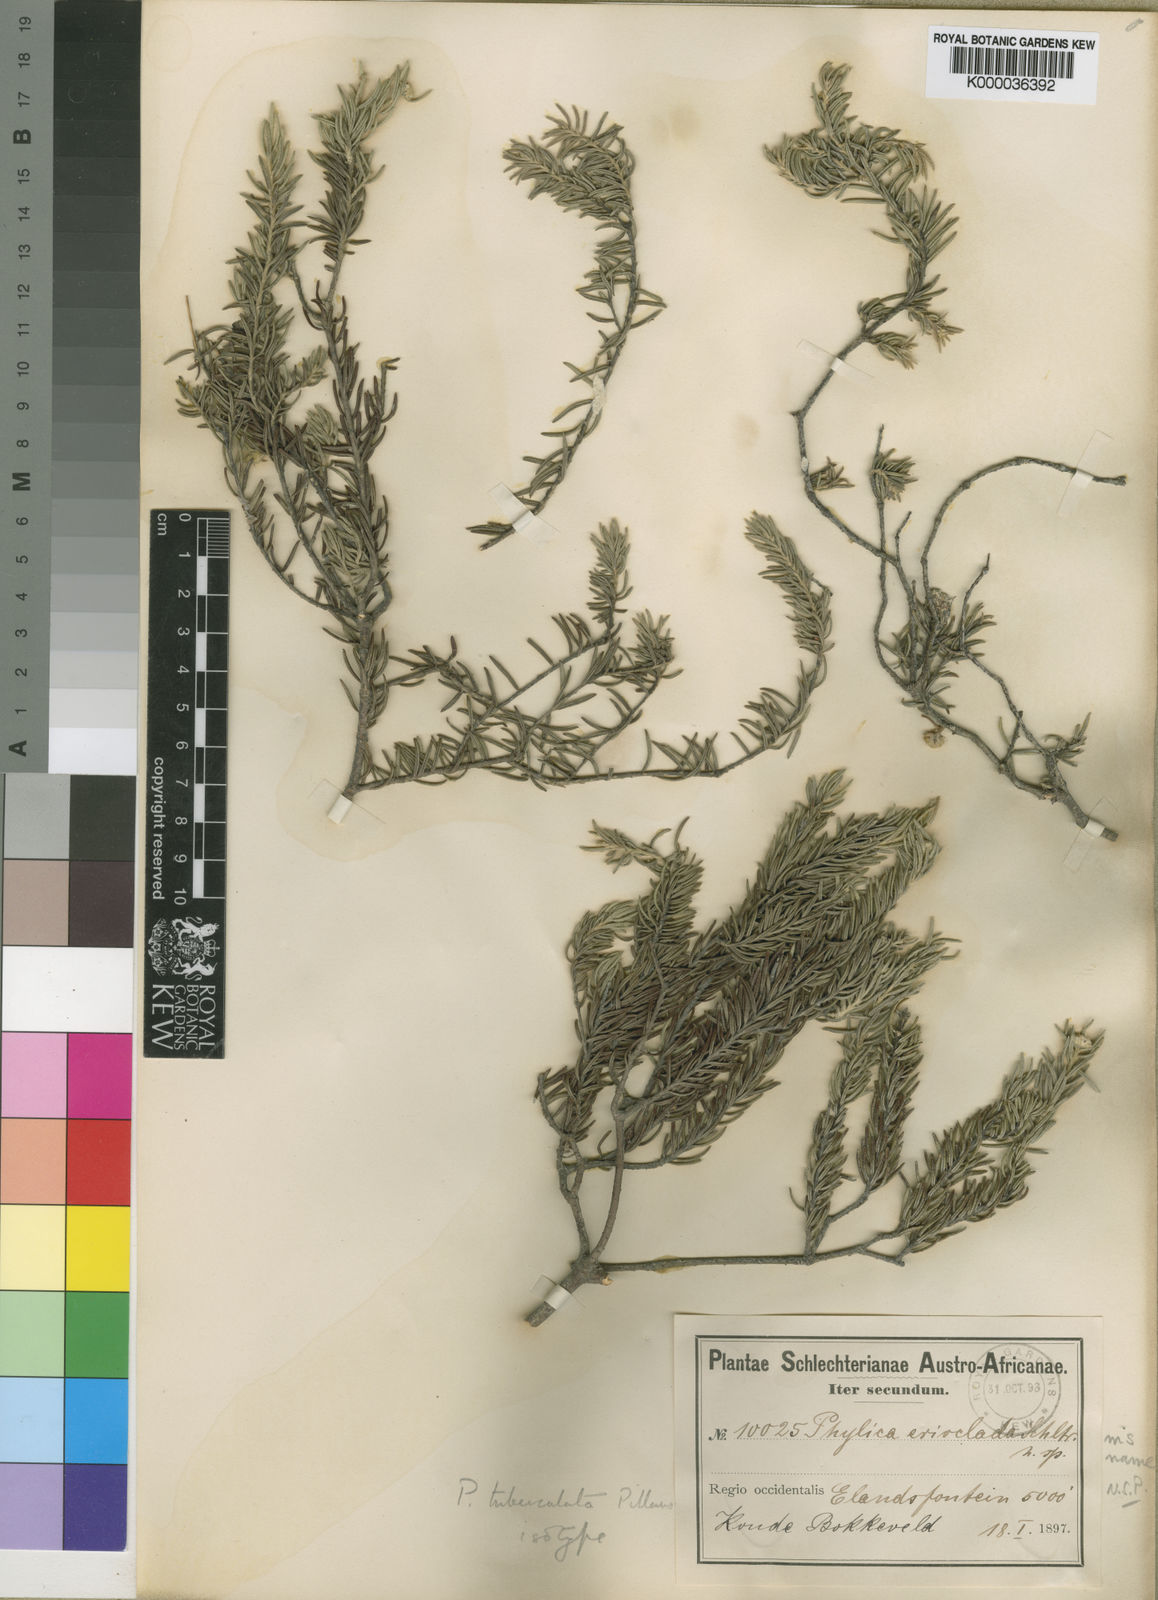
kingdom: Plantae
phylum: Tracheophyta
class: Magnoliopsida
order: Rosales
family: Rhamnaceae
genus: Phylica
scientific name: Phylica tuberculata
